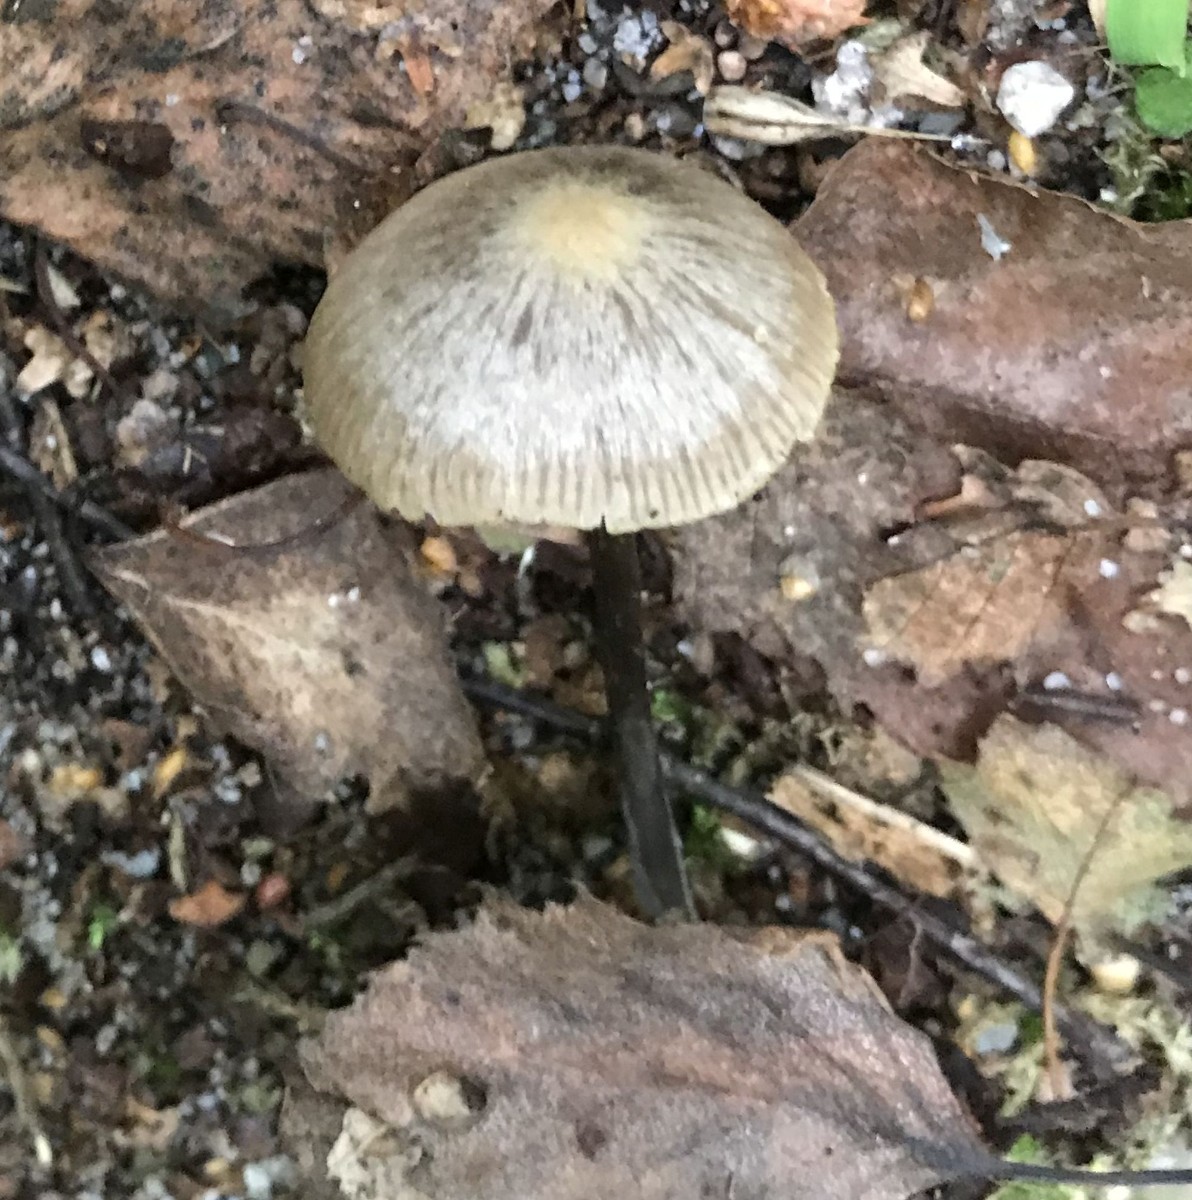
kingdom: Fungi
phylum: Basidiomycota
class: Agaricomycetes
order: Agaricales
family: Entolomataceae
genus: Entoloma
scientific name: Entoloma
